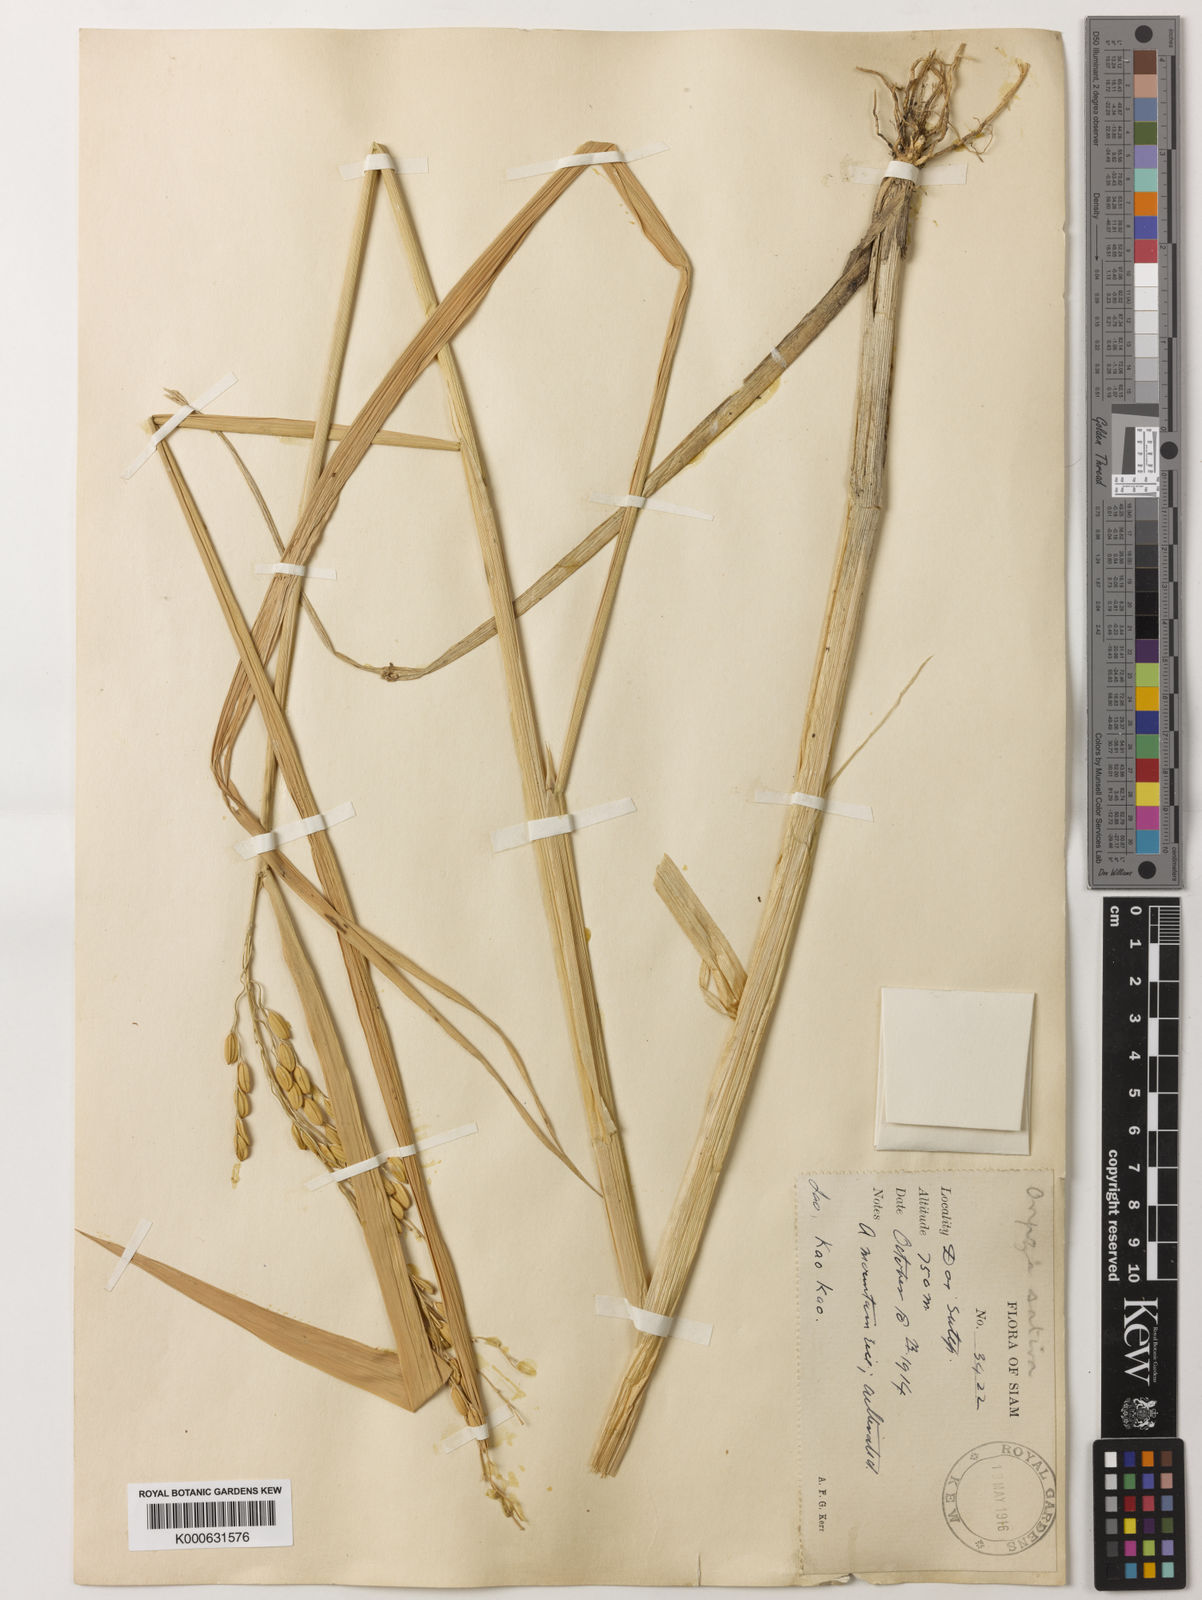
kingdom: Plantae
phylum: Tracheophyta
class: Liliopsida
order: Poales
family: Poaceae
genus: Oryza
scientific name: Oryza sativa
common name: Rice
